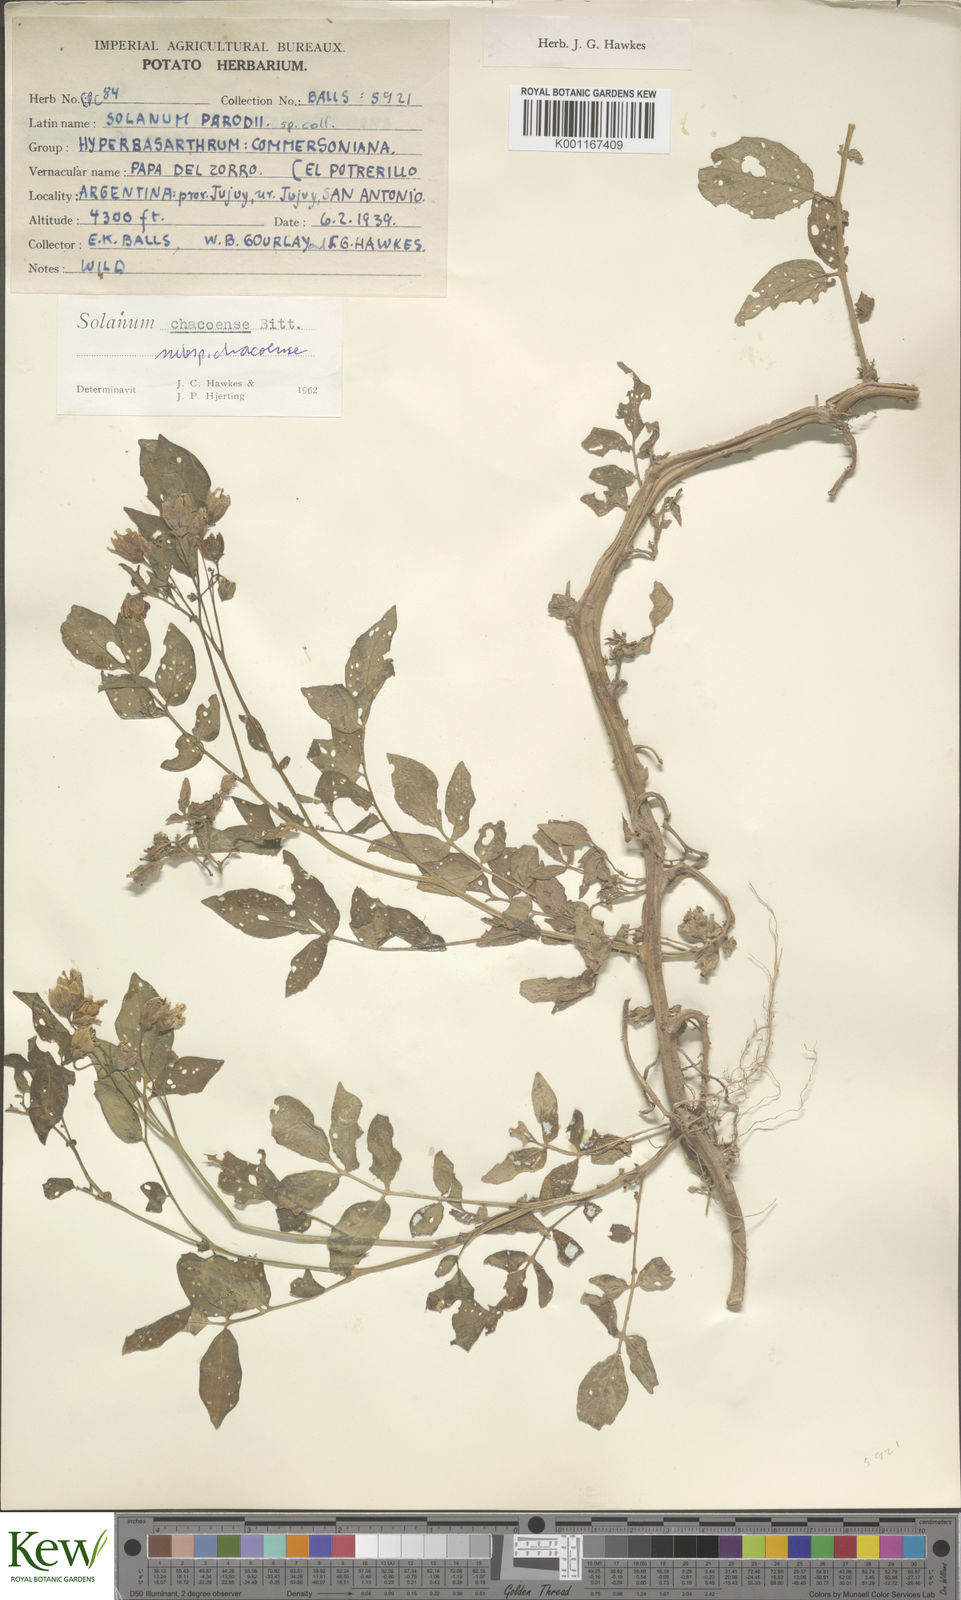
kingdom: Plantae
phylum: Tracheophyta
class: Magnoliopsida
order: Solanales
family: Solanaceae
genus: Solanum
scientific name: Solanum chacoense
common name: Chaco potato
